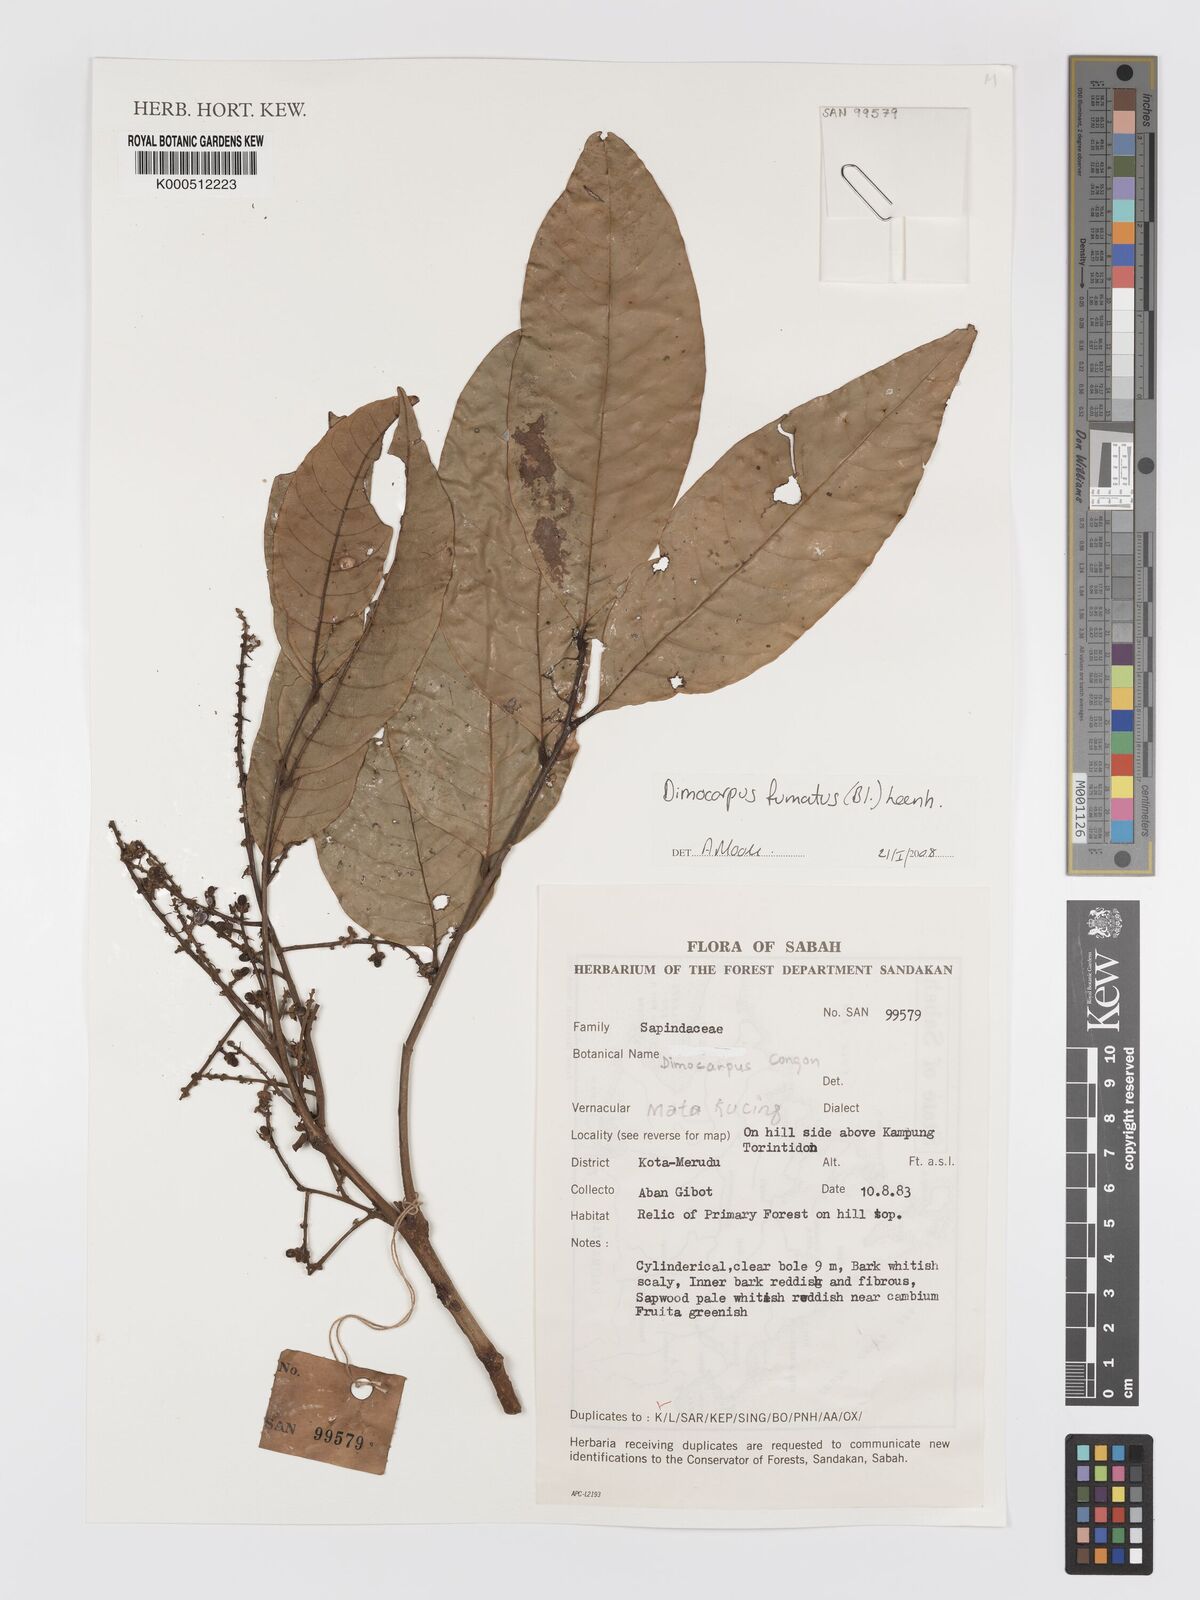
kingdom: Plantae
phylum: Tracheophyta
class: Magnoliopsida
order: Sapindales
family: Sapindaceae
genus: Dimocarpus
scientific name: Dimocarpus fumatus
